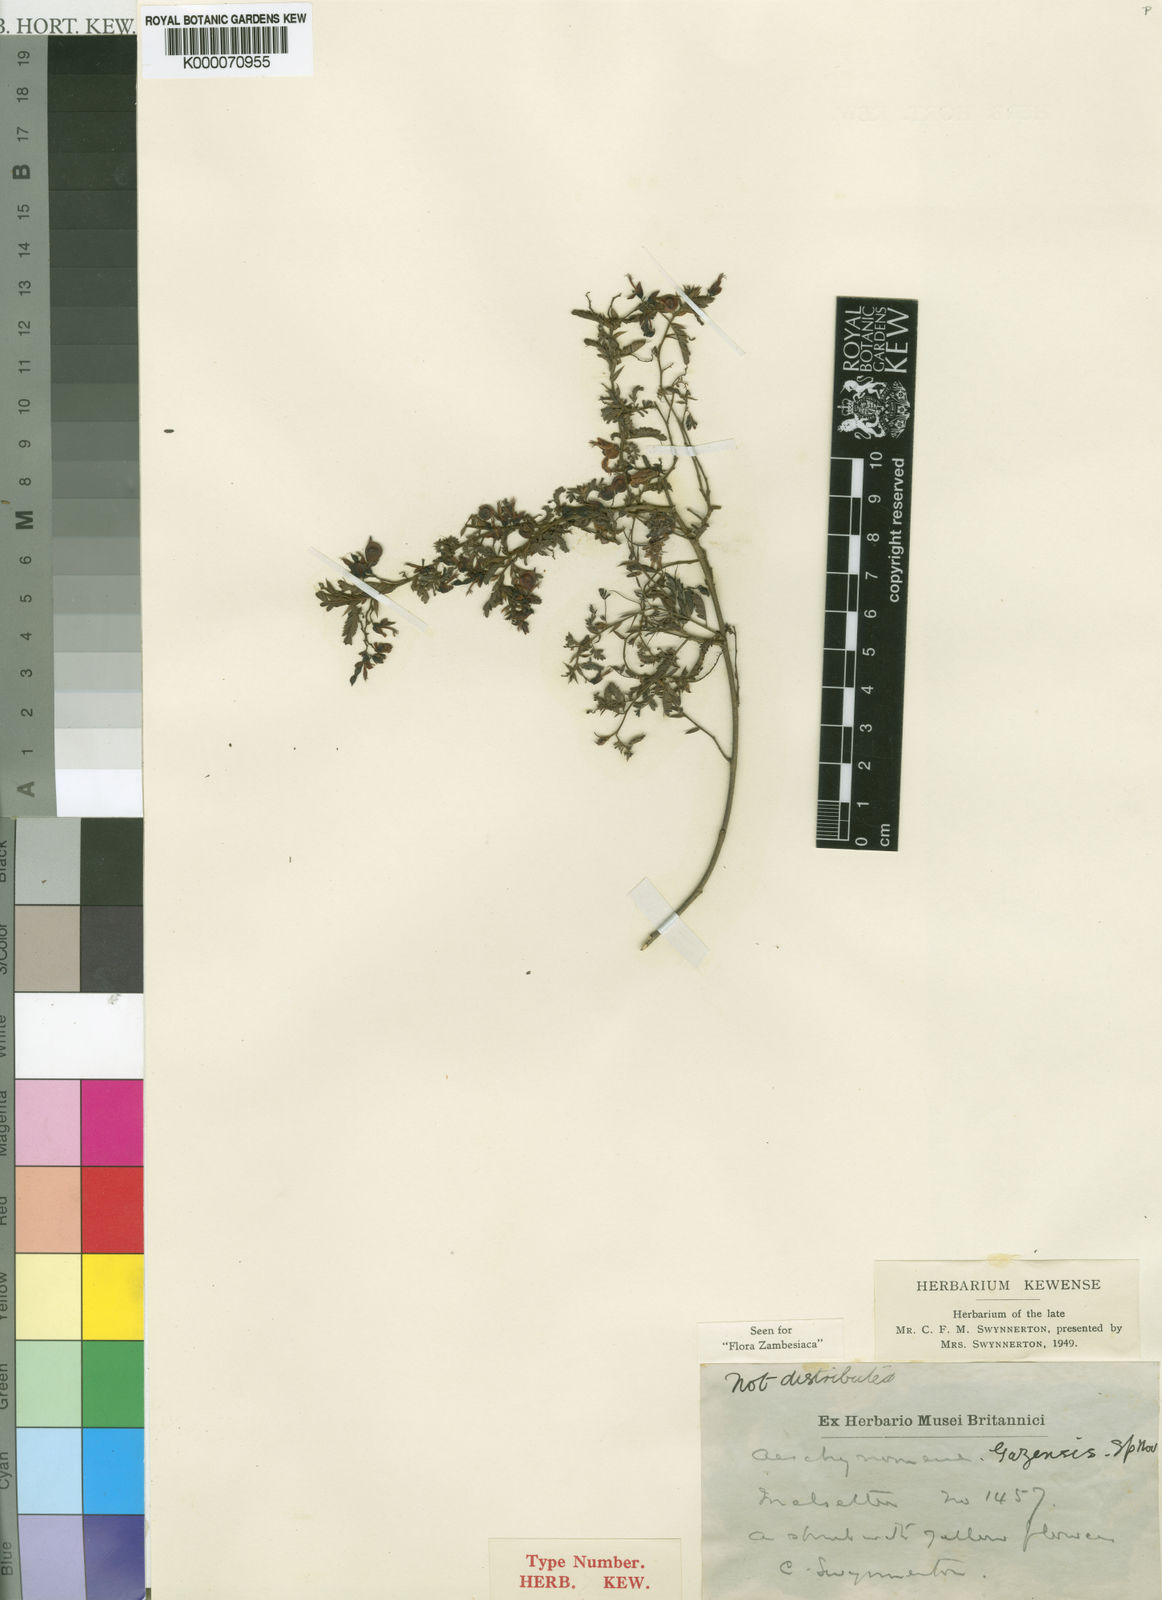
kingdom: Plantae
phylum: Tracheophyta
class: Magnoliopsida
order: Fabales
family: Fabaceae
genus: Aeschynomene
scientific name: Aeschynomene gazensis
